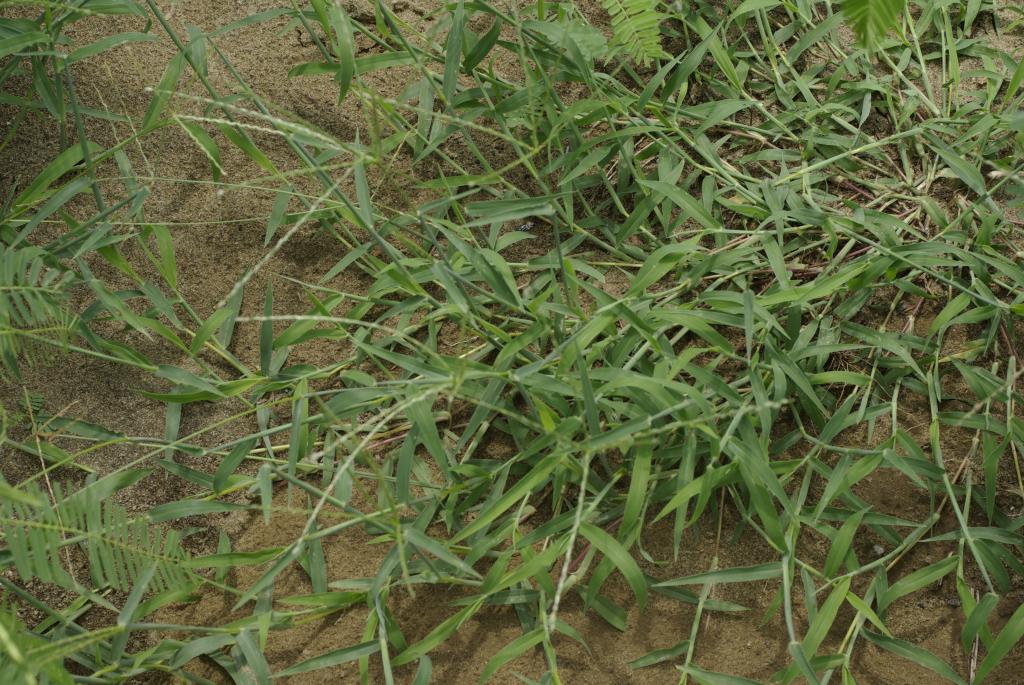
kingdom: Plantae
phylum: Tracheophyta
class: Liliopsida
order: Poales
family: Poaceae
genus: Digitaria
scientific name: Digitaria radicosa
